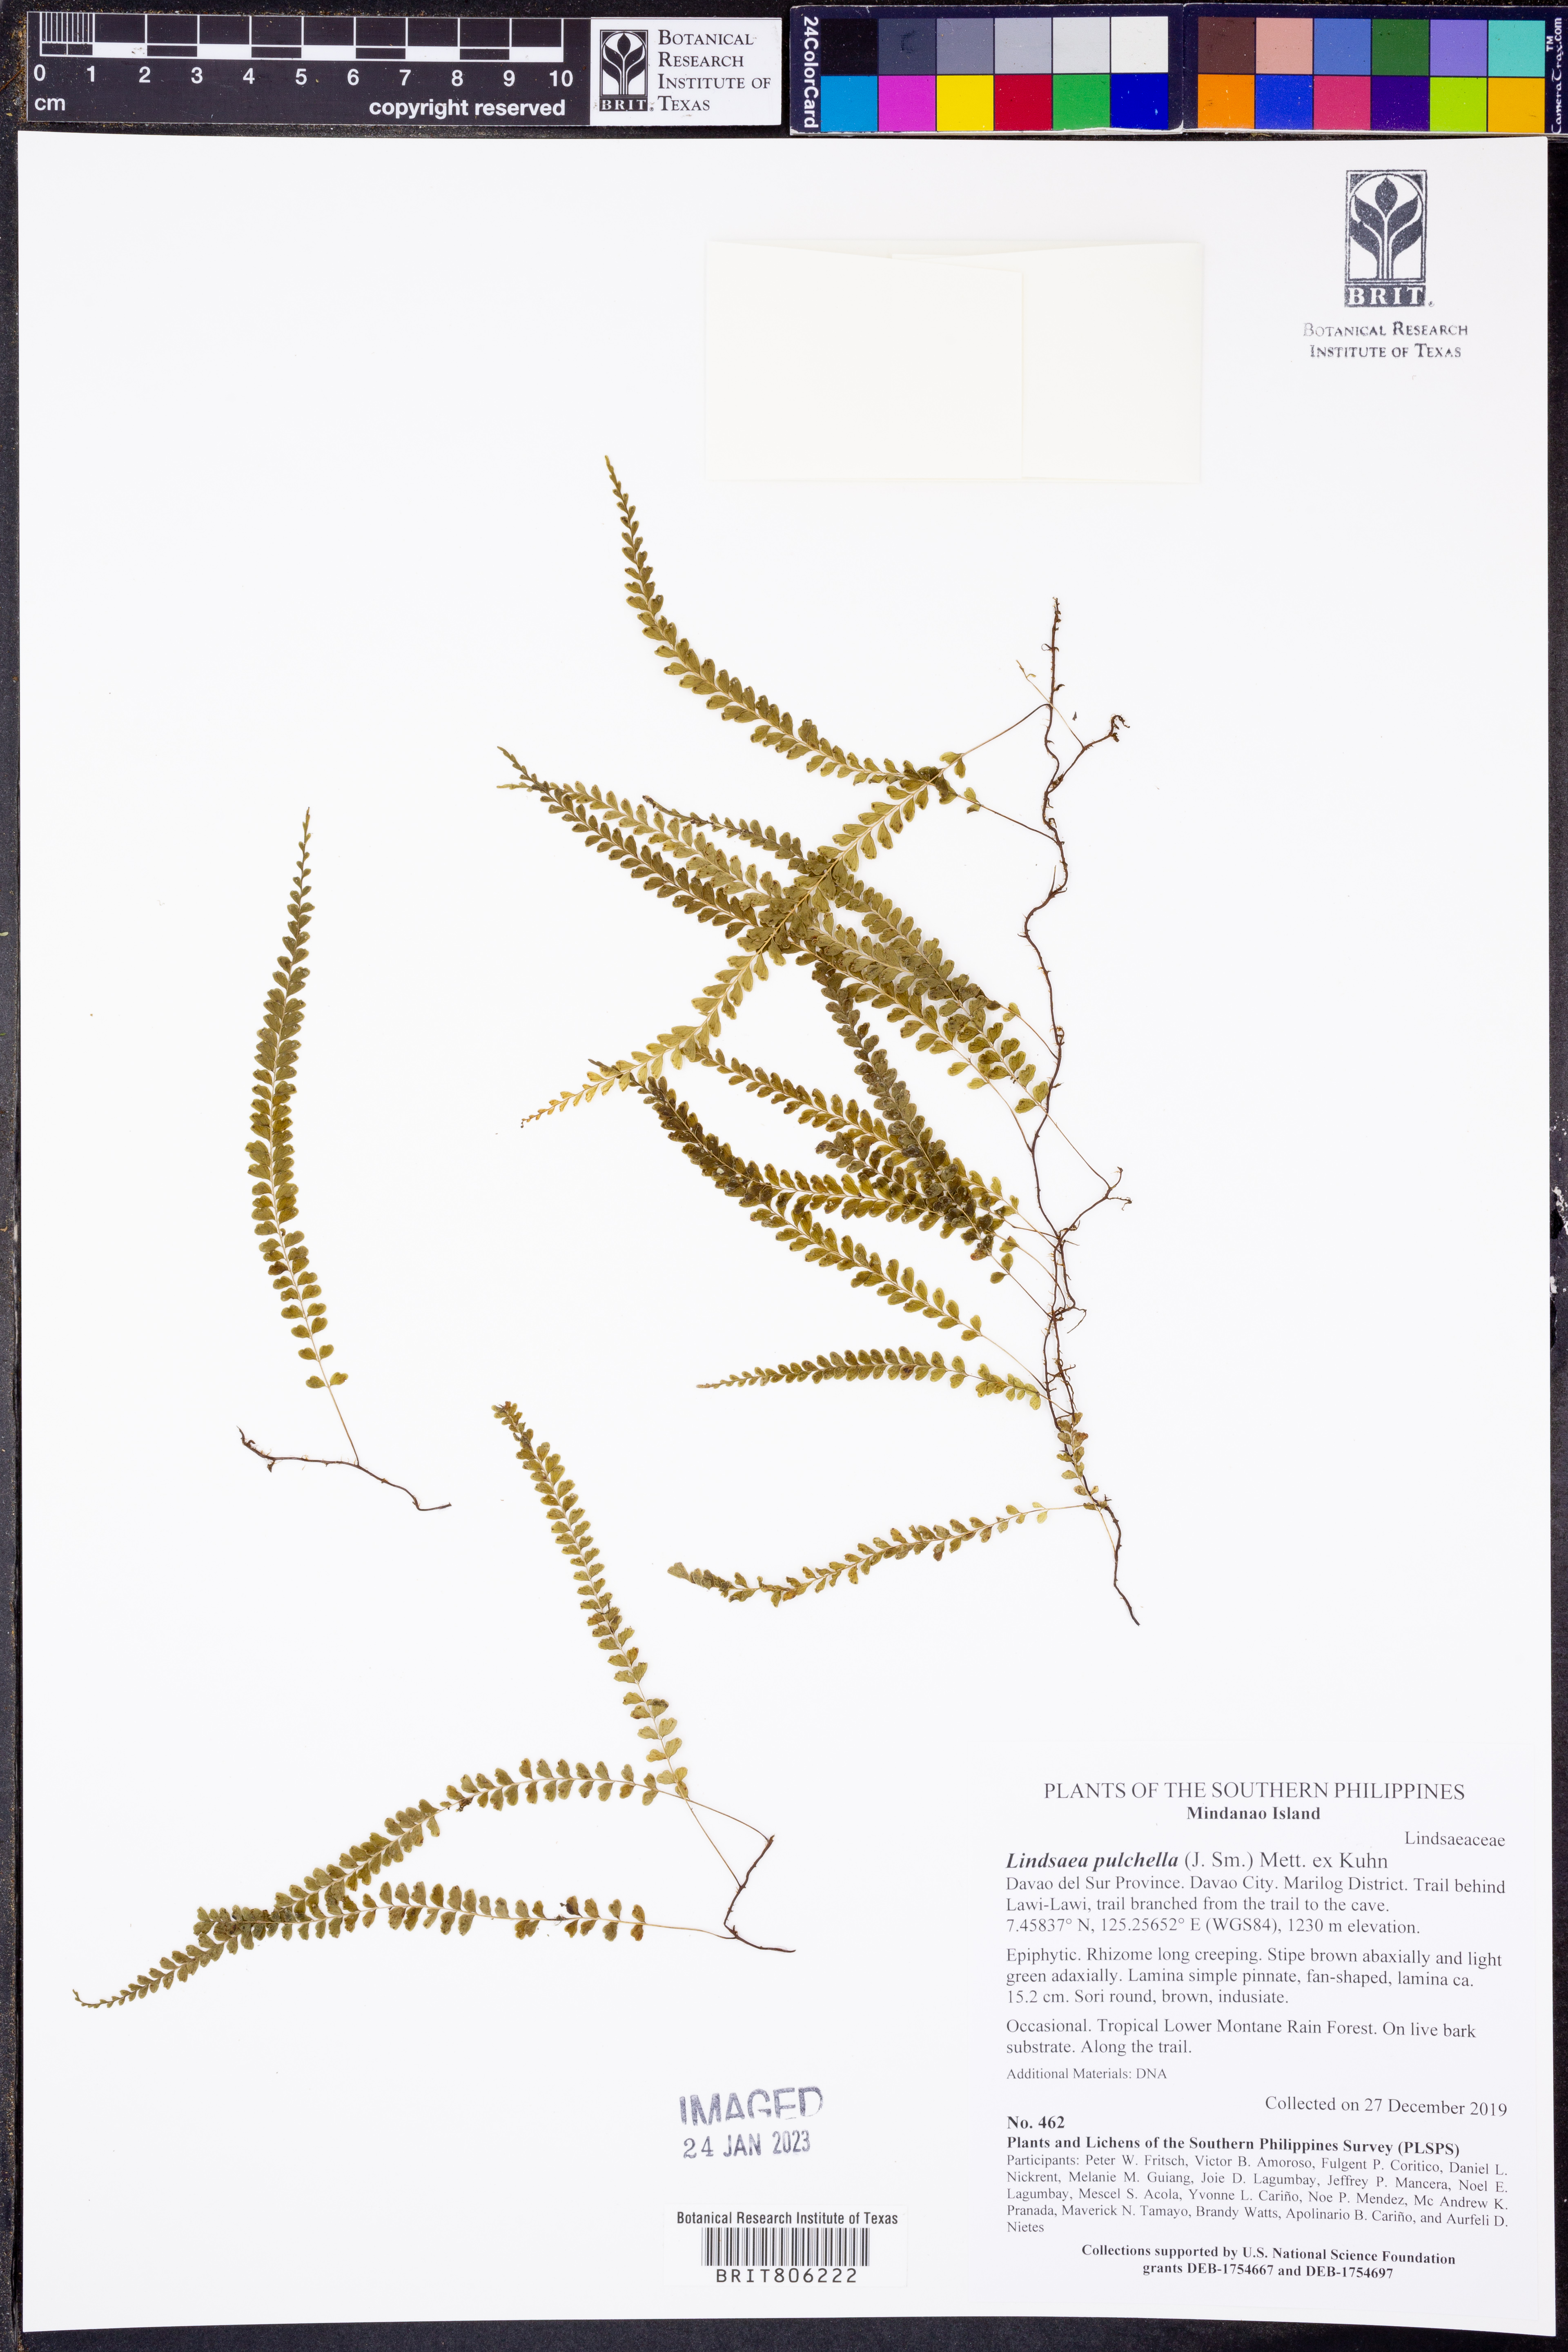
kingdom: Plantae
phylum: Tracheophyta
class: Polypodiopsida
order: Polypodiales
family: Lindsaeaceae
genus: Lindsaea
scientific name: Lindsaea pulchella
